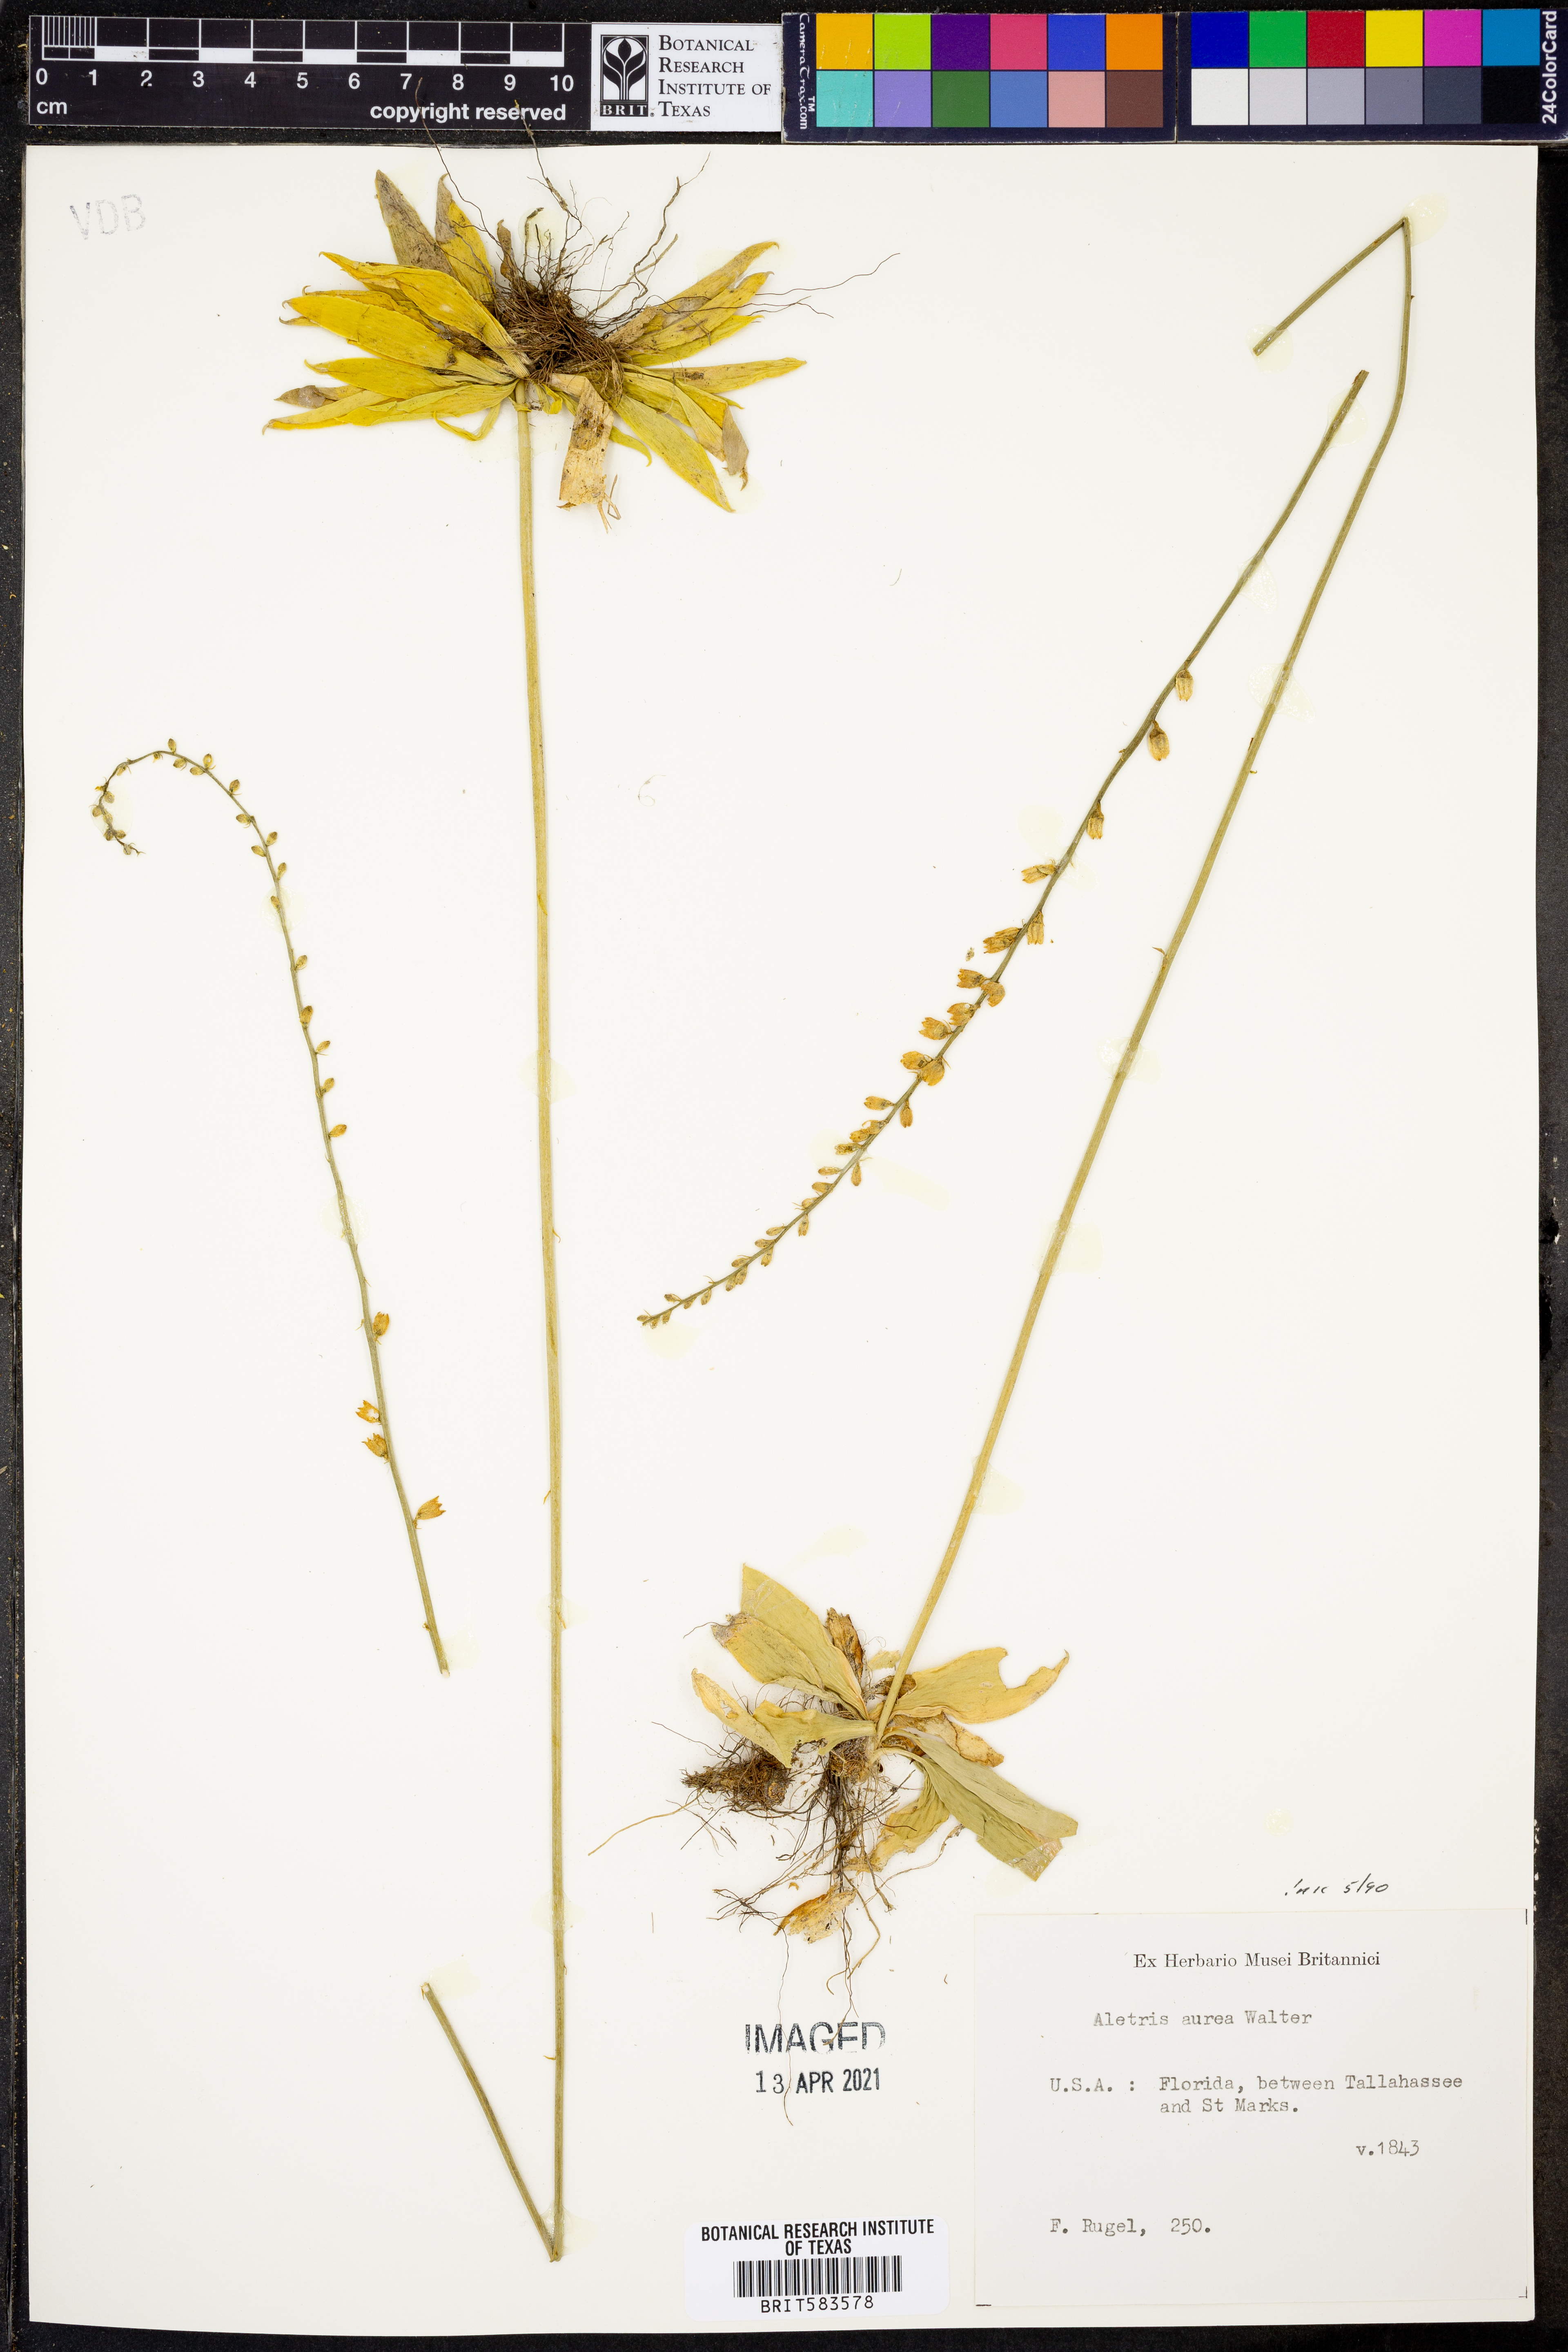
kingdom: Plantae
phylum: Tracheophyta
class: Liliopsida
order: Dioscoreales
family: Nartheciaceae
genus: Aletris
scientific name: Aletris aurea
